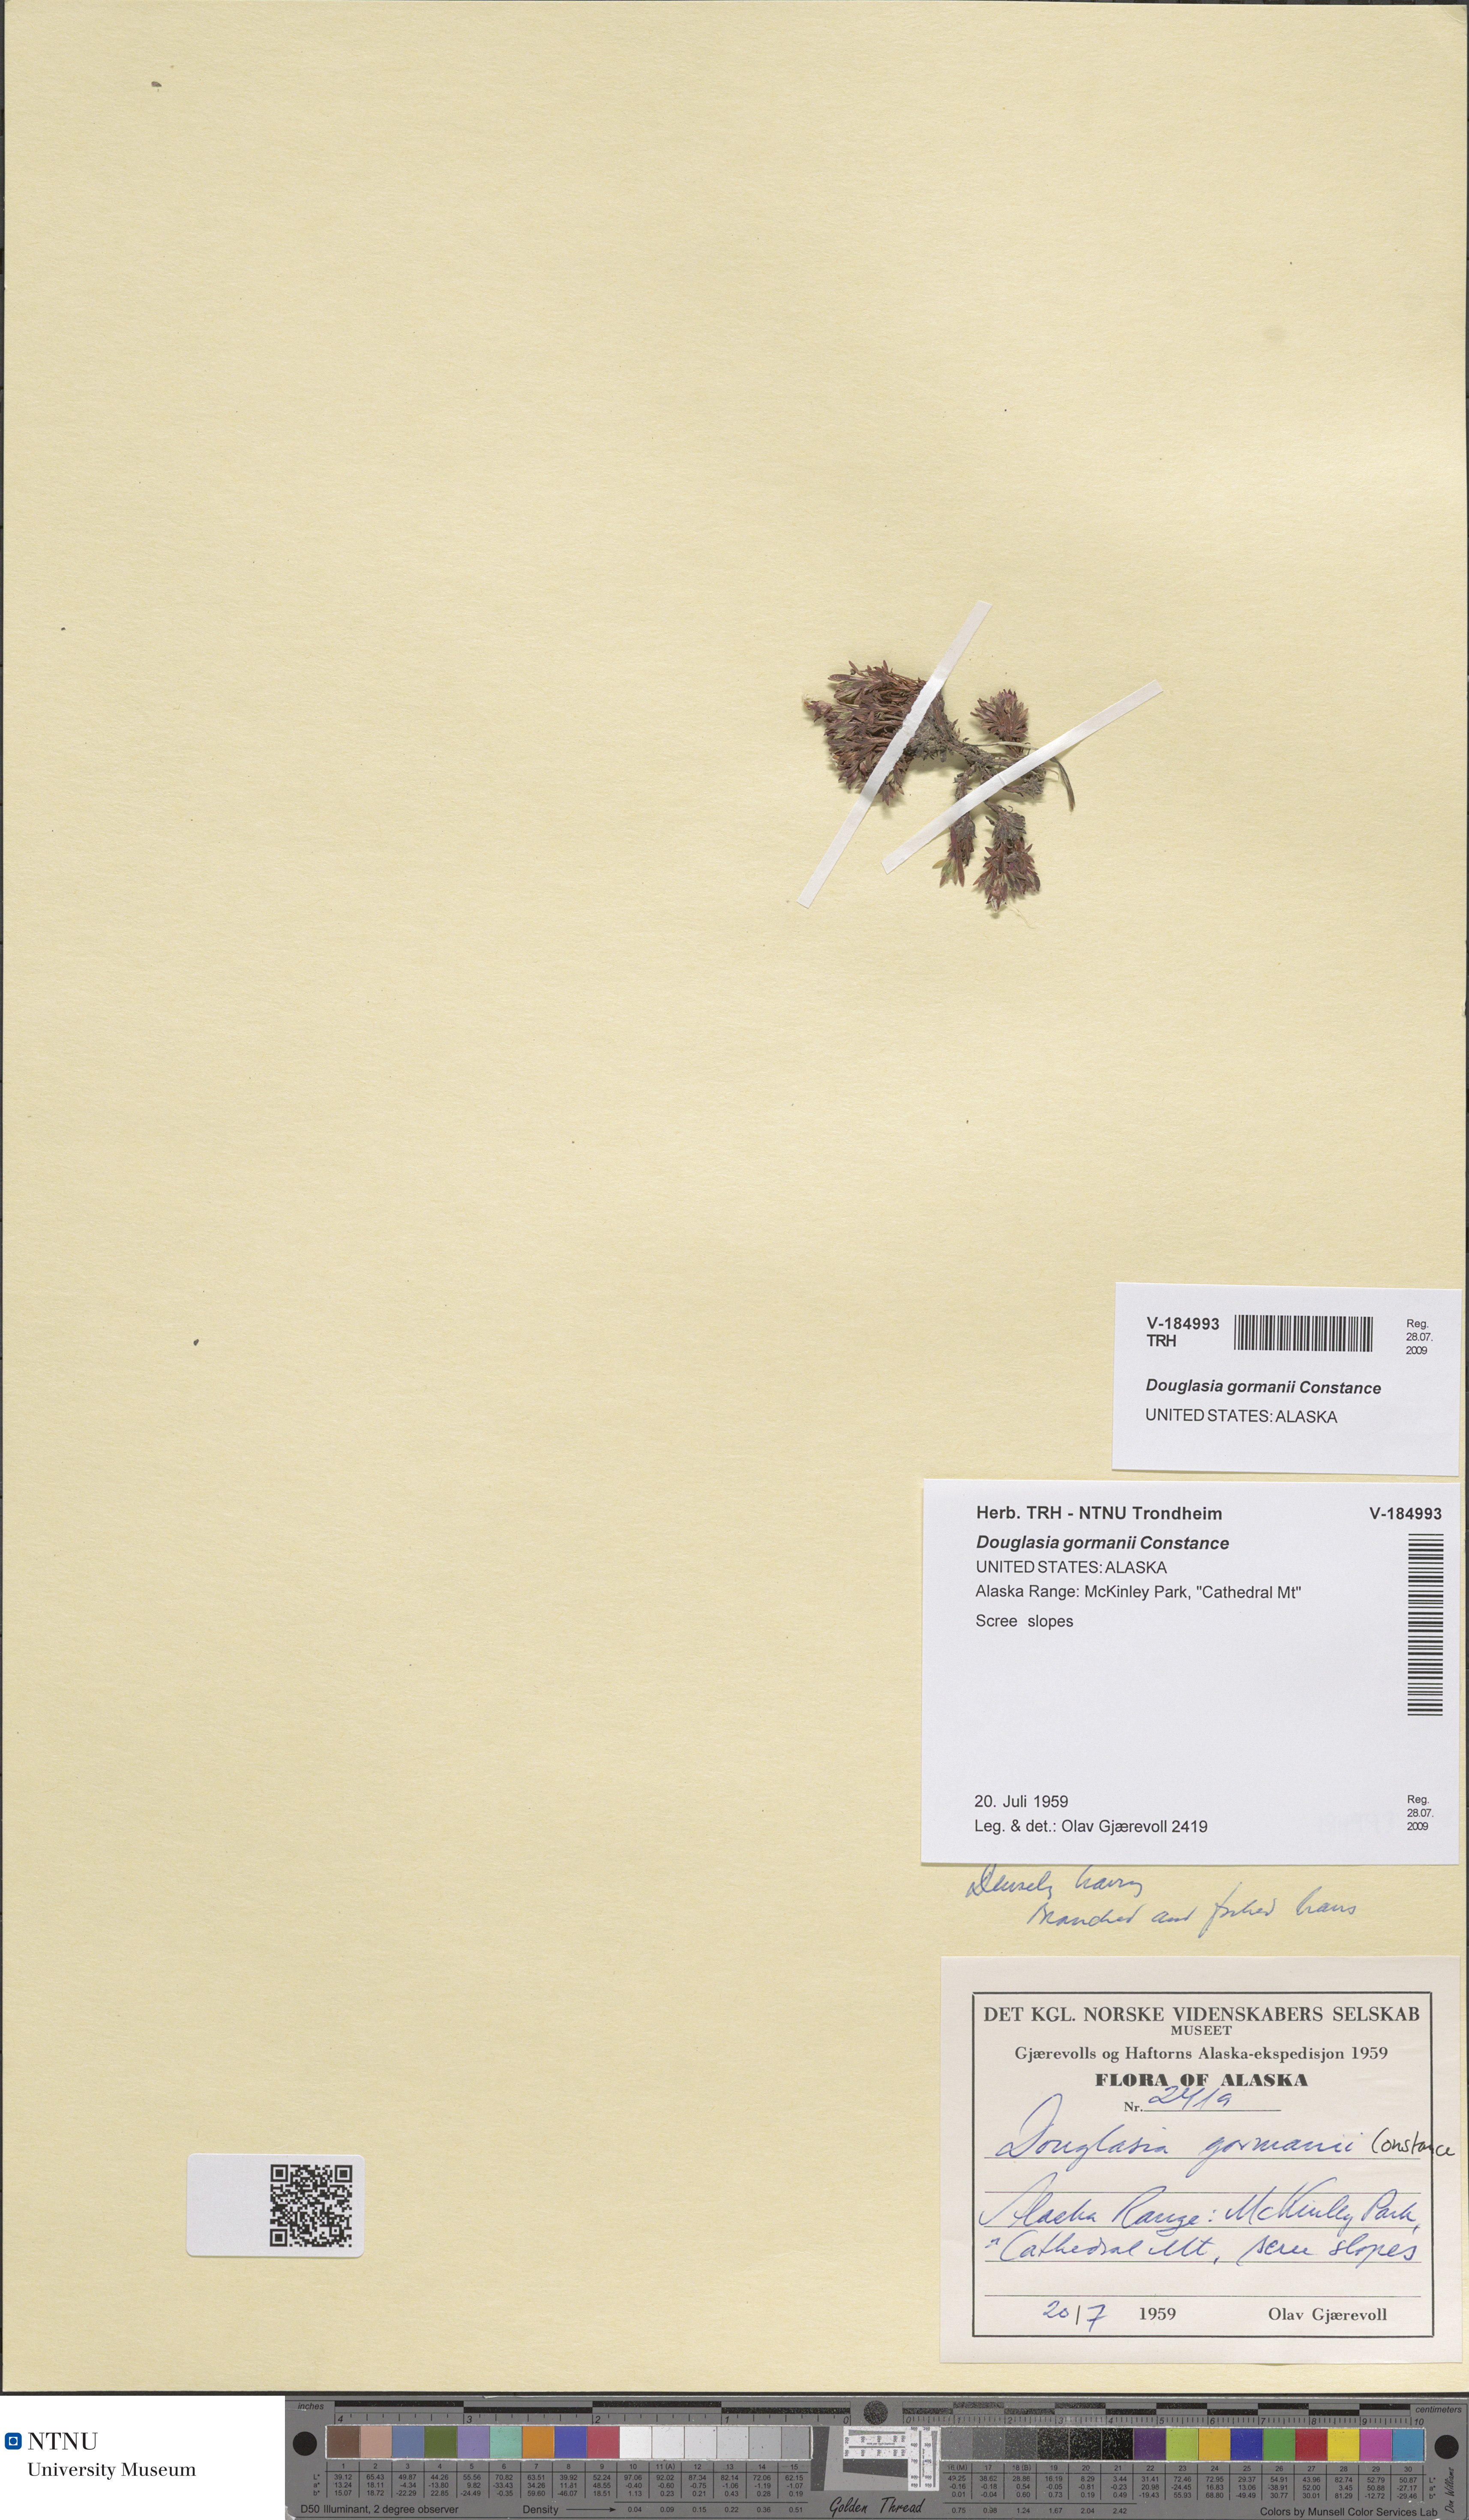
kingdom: Plantae
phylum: Tracheophyta
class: Magnoliopsida
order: Ericales
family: Primulaceae
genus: Androsace
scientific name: Androsace constancei
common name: Gorman's dwarf-primrose
